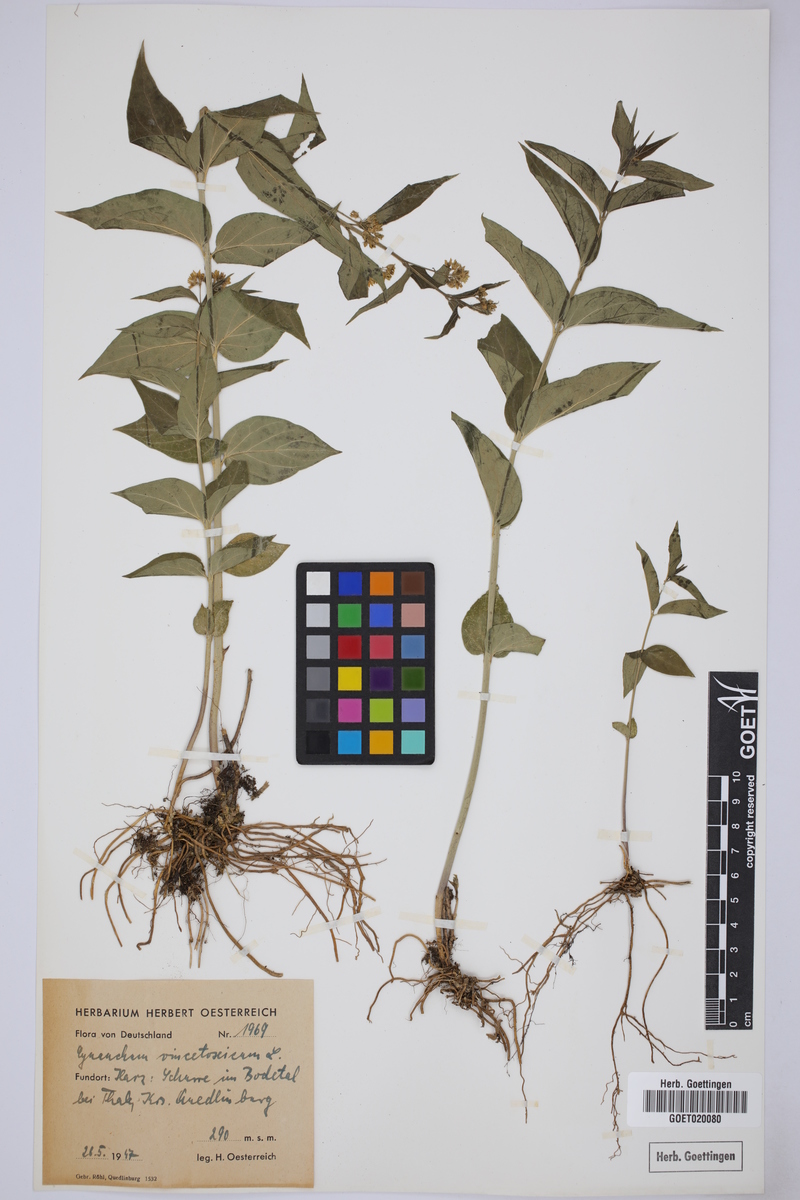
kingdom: Plantae
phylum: Tracheophyta
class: Magnoliopsida
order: Gentianales
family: Apocynaceae
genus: Vincetoxicum
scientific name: Vincetoxicum hirundinaria
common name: White swallowwort
